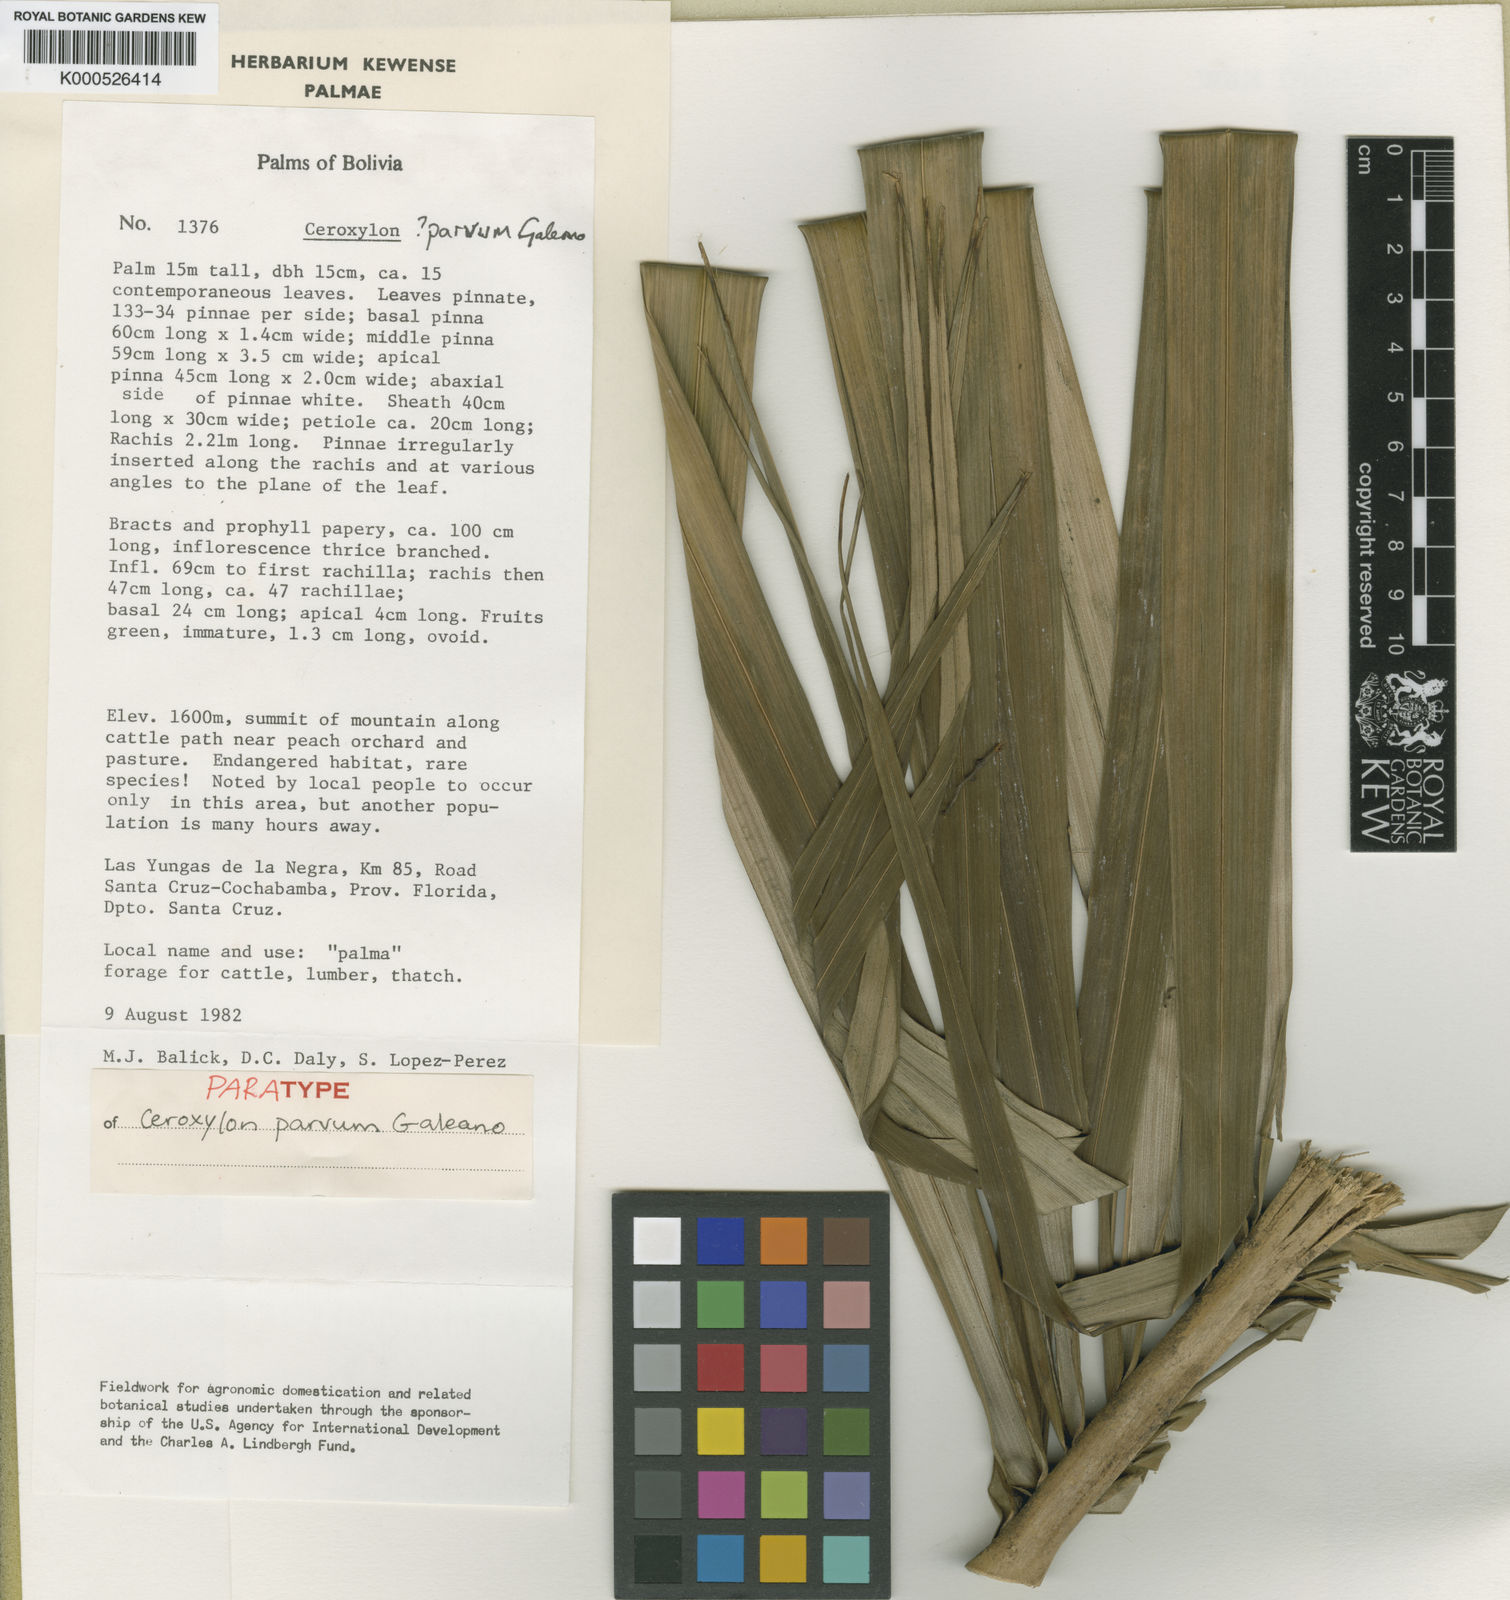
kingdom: Plantae
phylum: Tracheophyta
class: Liliopsida
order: Arecales
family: Arecaceae
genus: Ceroxylon
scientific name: Ceroxylon parvum
